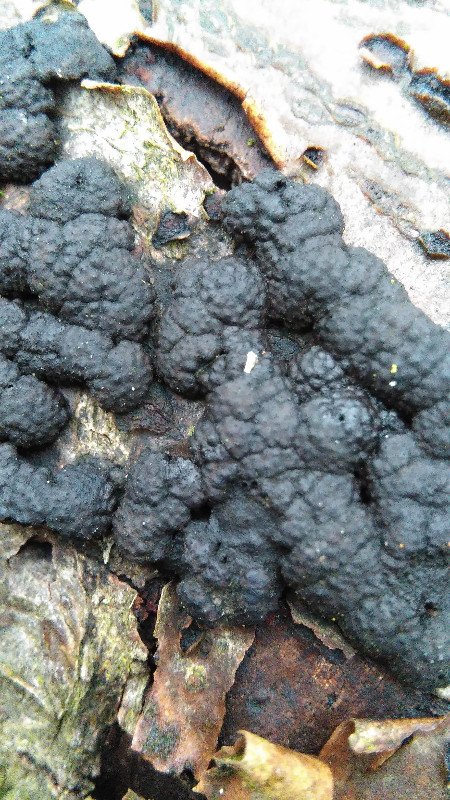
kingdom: Fungi
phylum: Ascomycota
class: Sordariomycetes
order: Xylariales
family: Hypoxylaceae
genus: Jackrogersella
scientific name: Jackrogersella cohaerens
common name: sammenflydende kulbær
